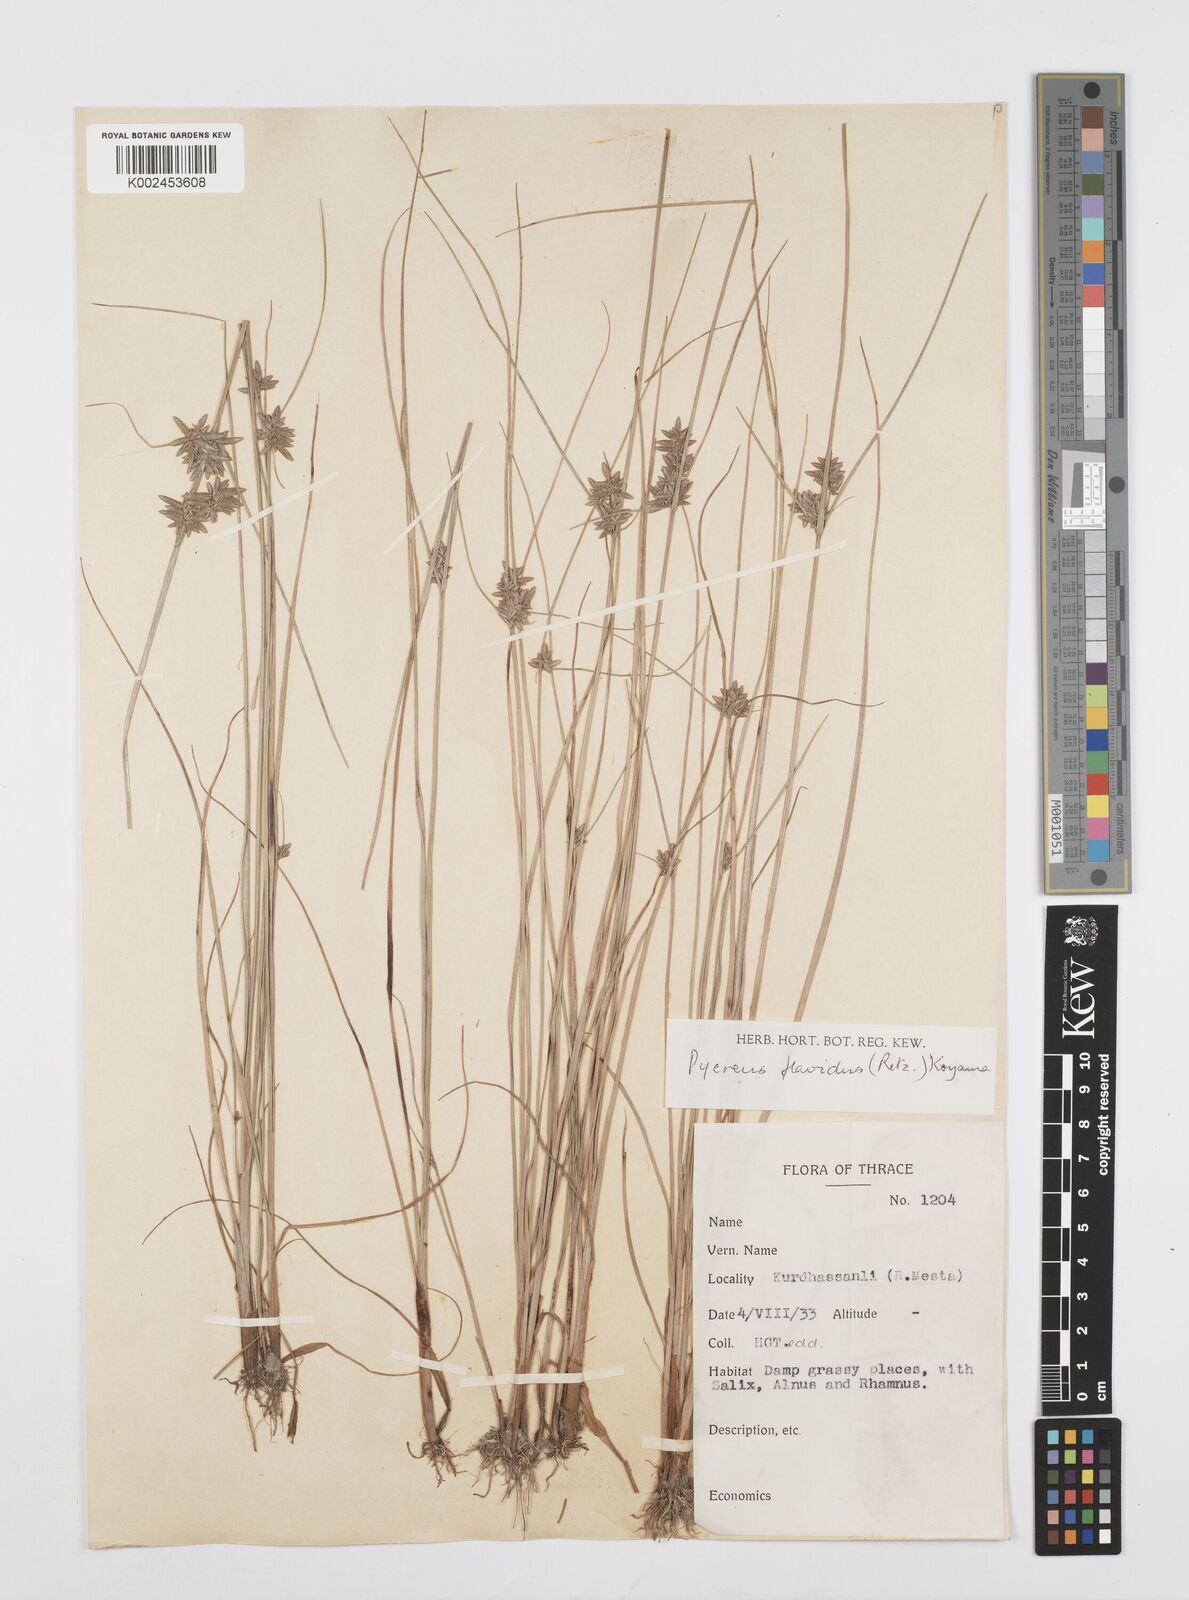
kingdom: Plantae
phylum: Tracheophyta
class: Liliopsida
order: Poales
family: Cyperaceae
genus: Cyperus
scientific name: Cyperus flavidus
